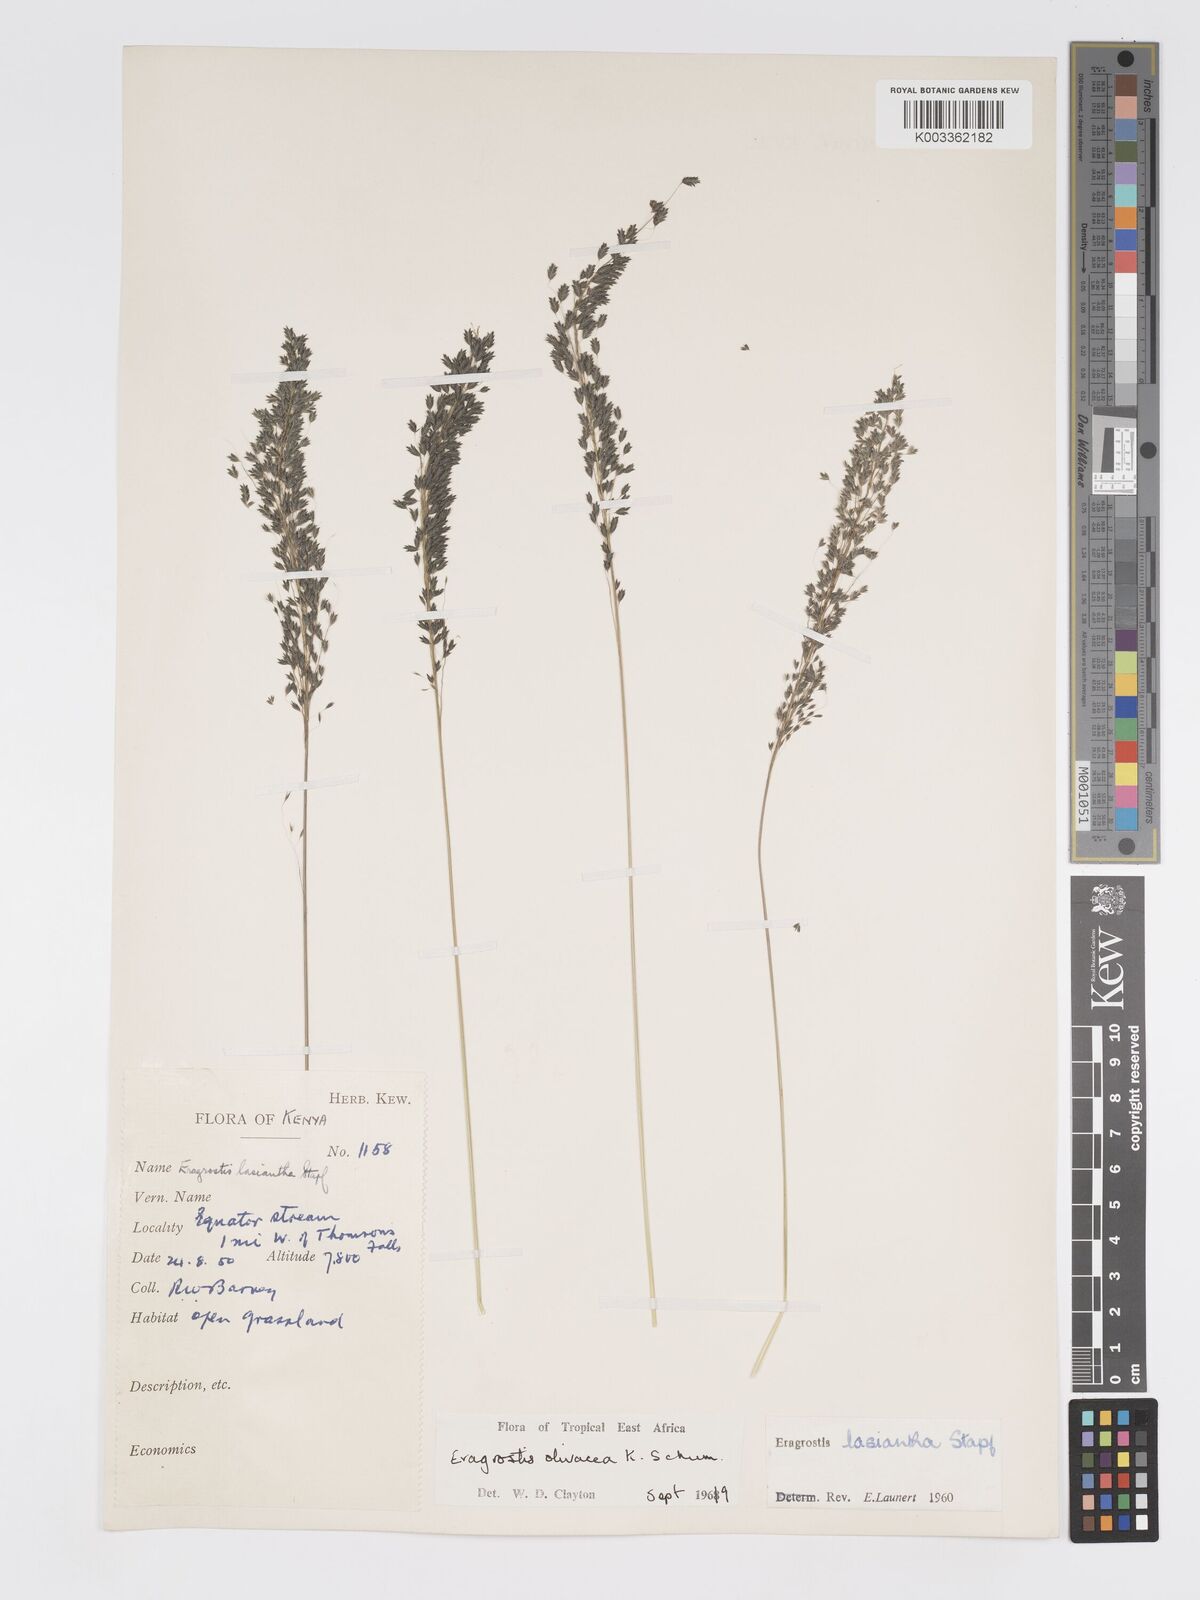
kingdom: Plantae
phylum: Tracheophyta
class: Liliopsida
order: Poales
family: Poaceae
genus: Eragrostis
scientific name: Eragrostis olivacea
